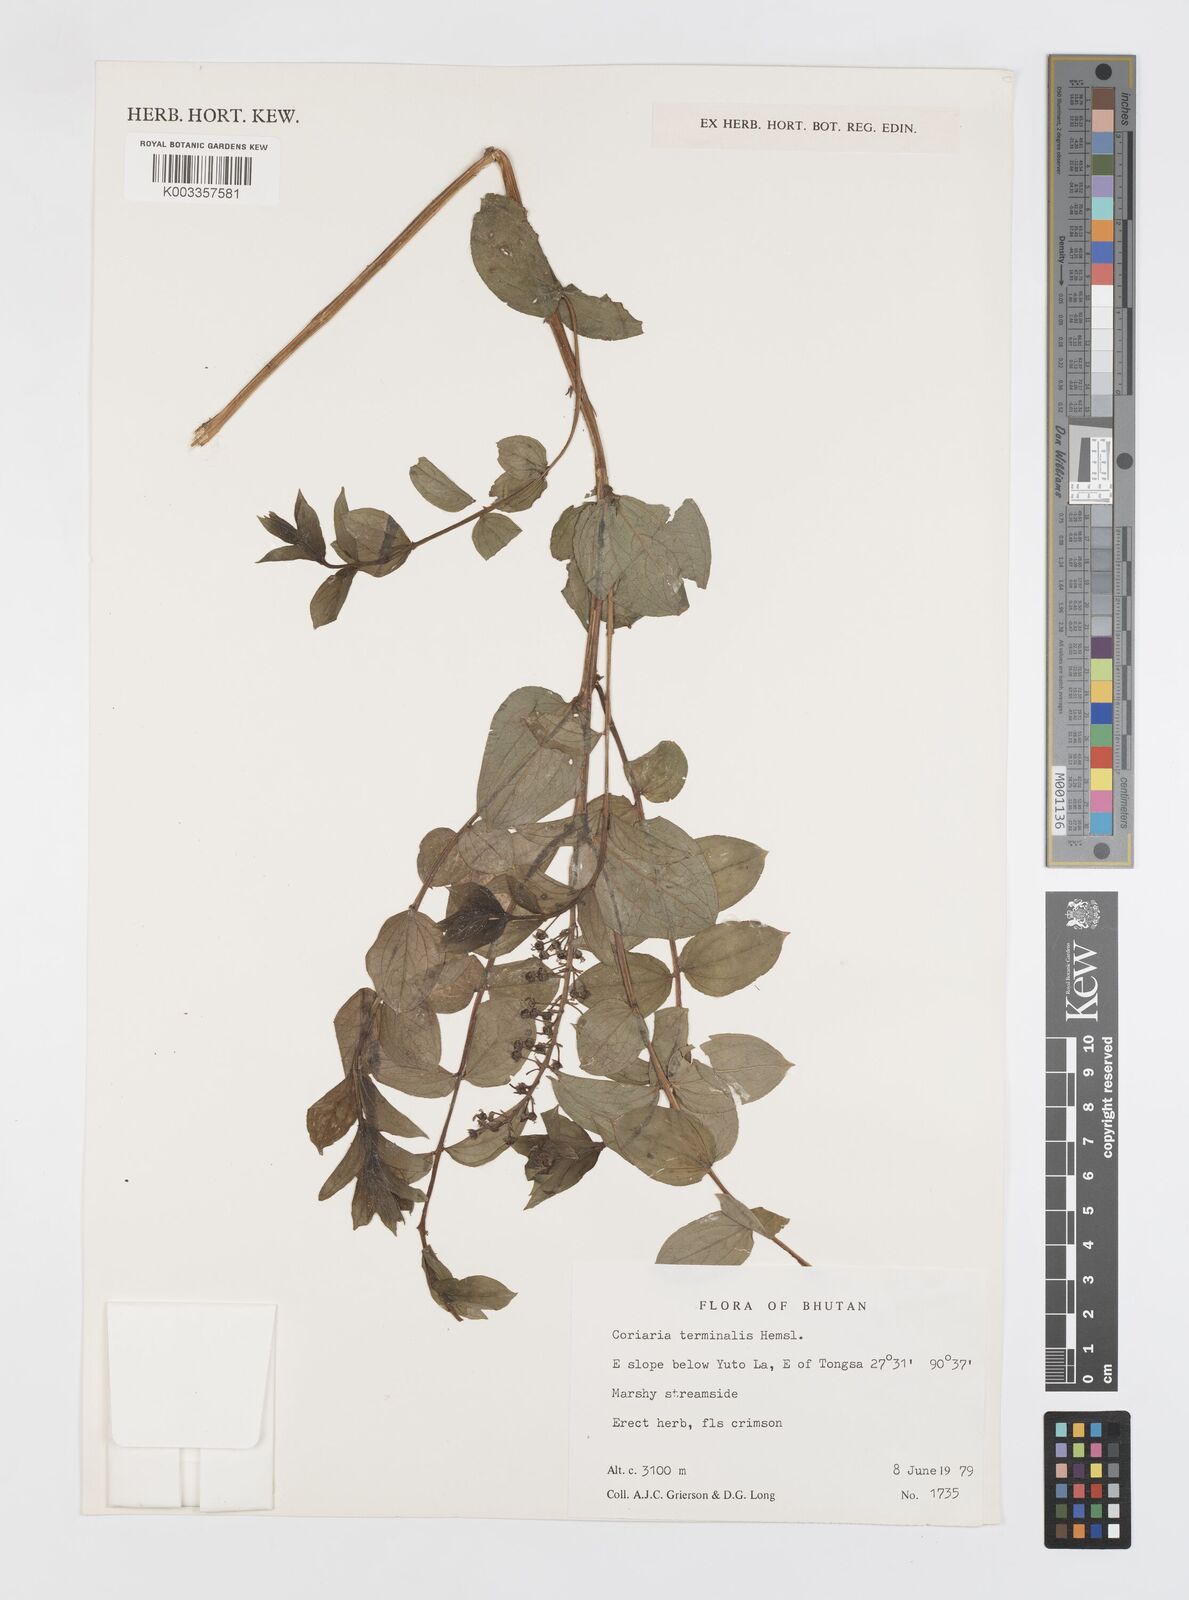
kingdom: Plantae
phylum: Tracheophyta
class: Magnoliopsida
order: Cucurbitales
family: Coriariaceae
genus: Coriaria
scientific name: Coriaria terminalis
